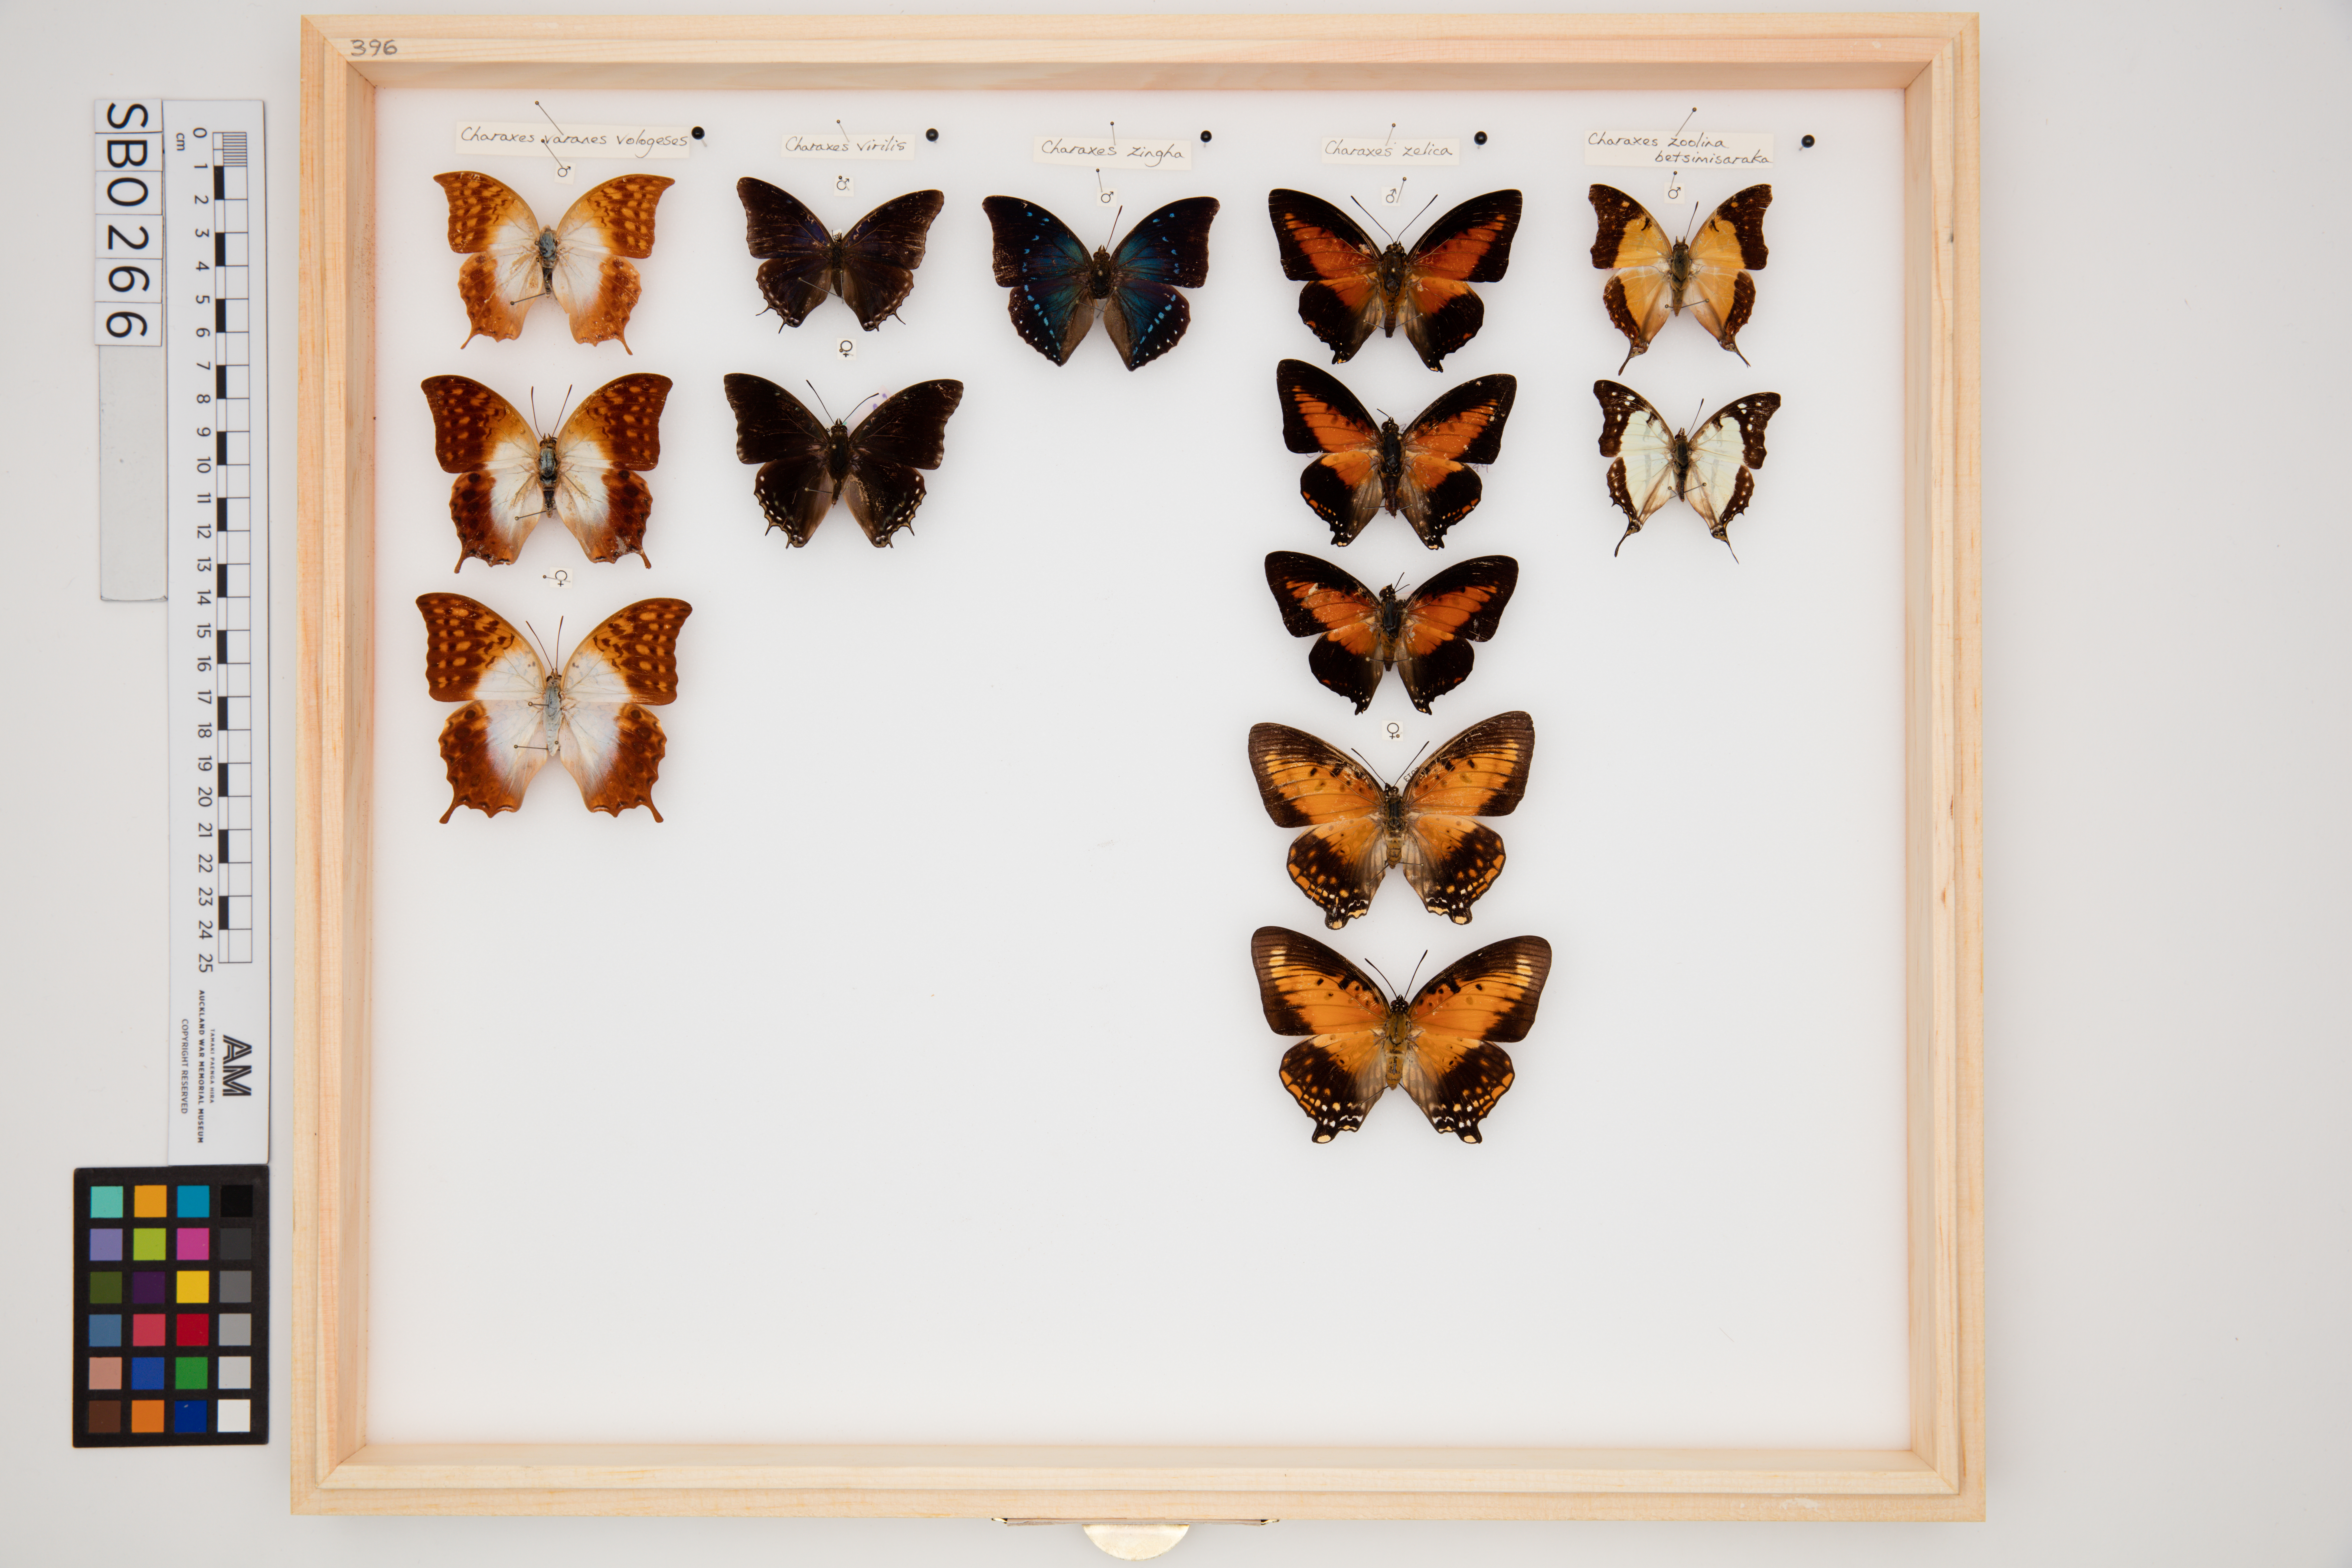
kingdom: Animalia
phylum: Arthropoda
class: Insecta
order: Lepidoptera
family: Nymphalidae
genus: Charaxes
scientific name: Charaxes zingha
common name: Shining red charaxes
